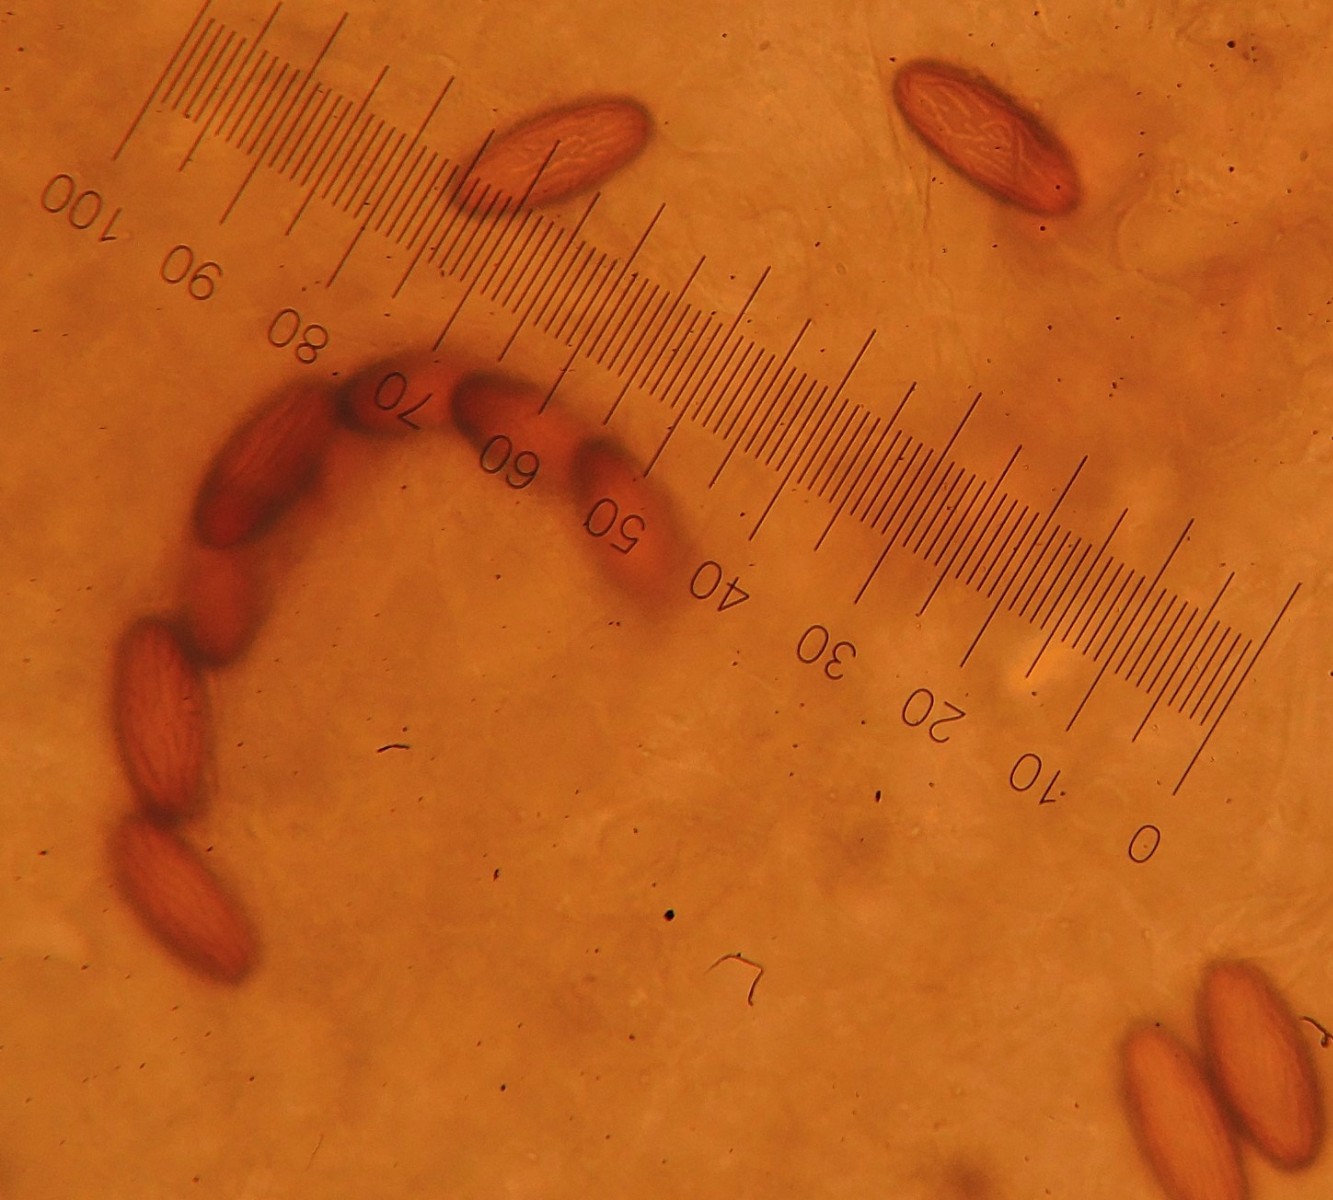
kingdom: Fungi
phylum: Ascomycota
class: Pezizomycetes
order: Pezizales
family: Ascobolaceae
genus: Ascobolus
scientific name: Ascobolus albidus
